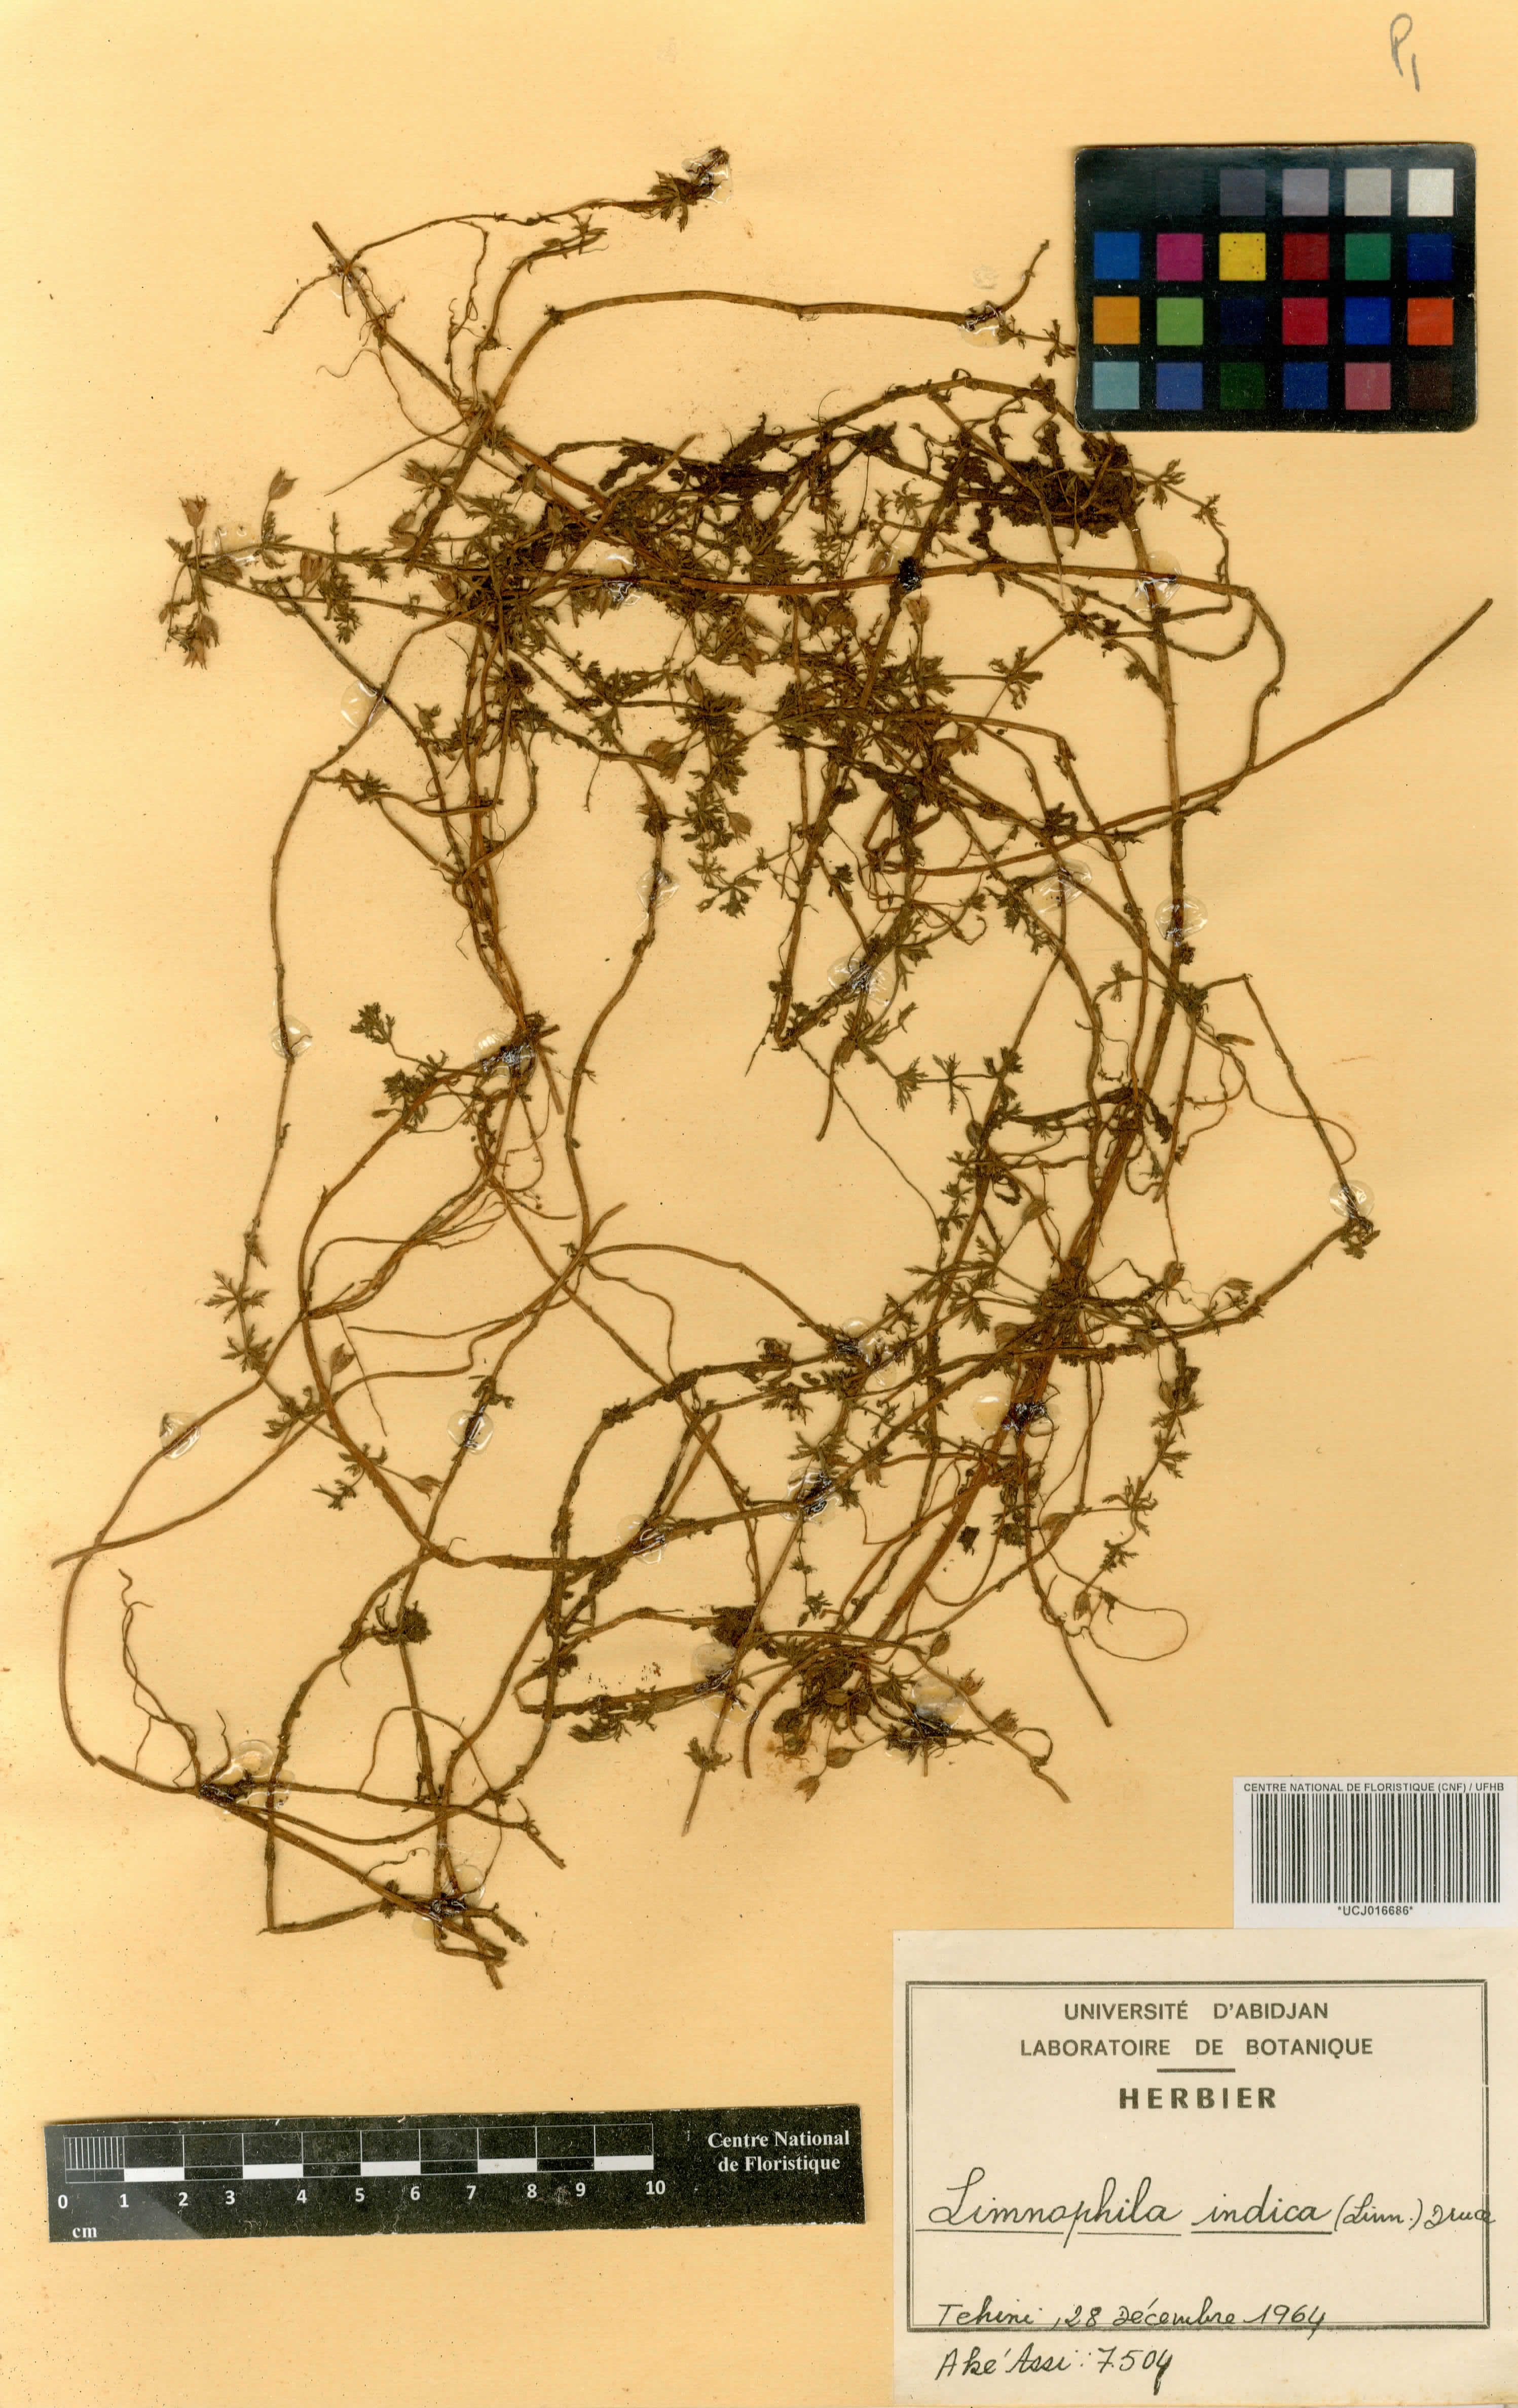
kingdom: Plantae
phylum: Tracheophyta
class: Magnoliopsida
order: Lamiales
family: Plantaginaceae
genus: Limnophila
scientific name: Limnophila indica
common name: Indian marshweed
